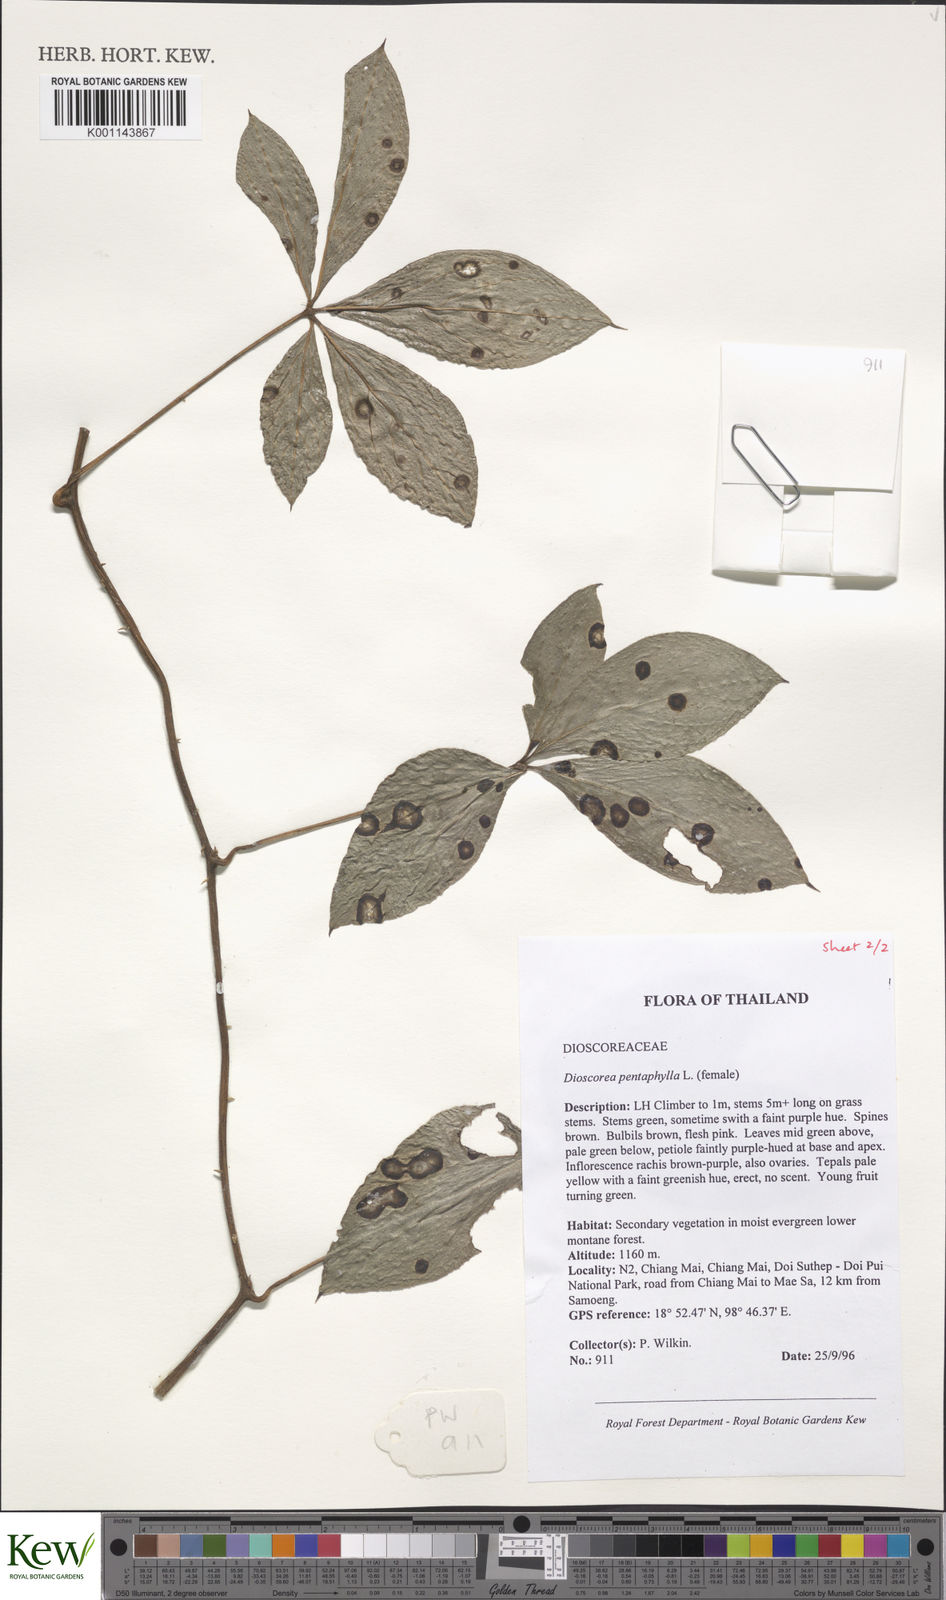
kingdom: Plantae
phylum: Tracheophyta
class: Liliopsida
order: Dioscoreales
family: Dioscoreaceae
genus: Dioscorea
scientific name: Dioscorea pentaphylla
